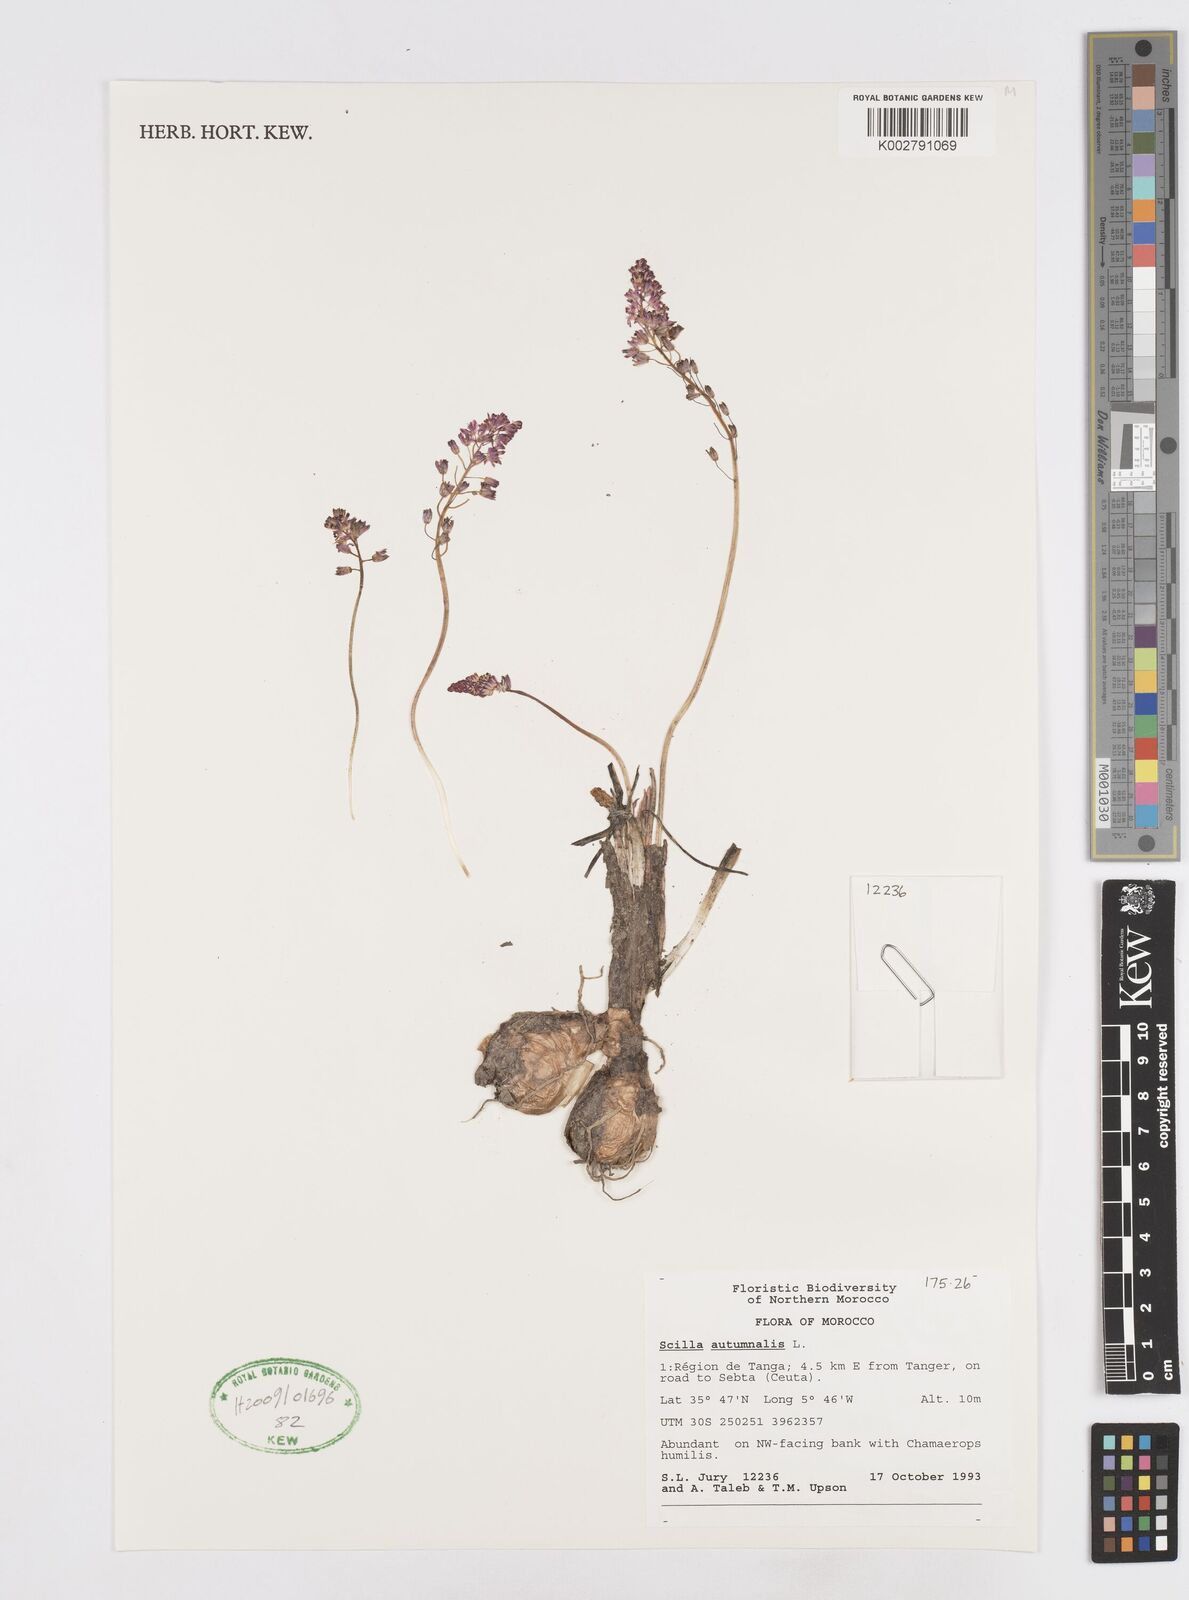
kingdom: Plantae
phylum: Tracheophyta
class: Liliopsida
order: Asparagales
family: Asparagaceae
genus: Prospero
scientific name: Prospero autumnale
